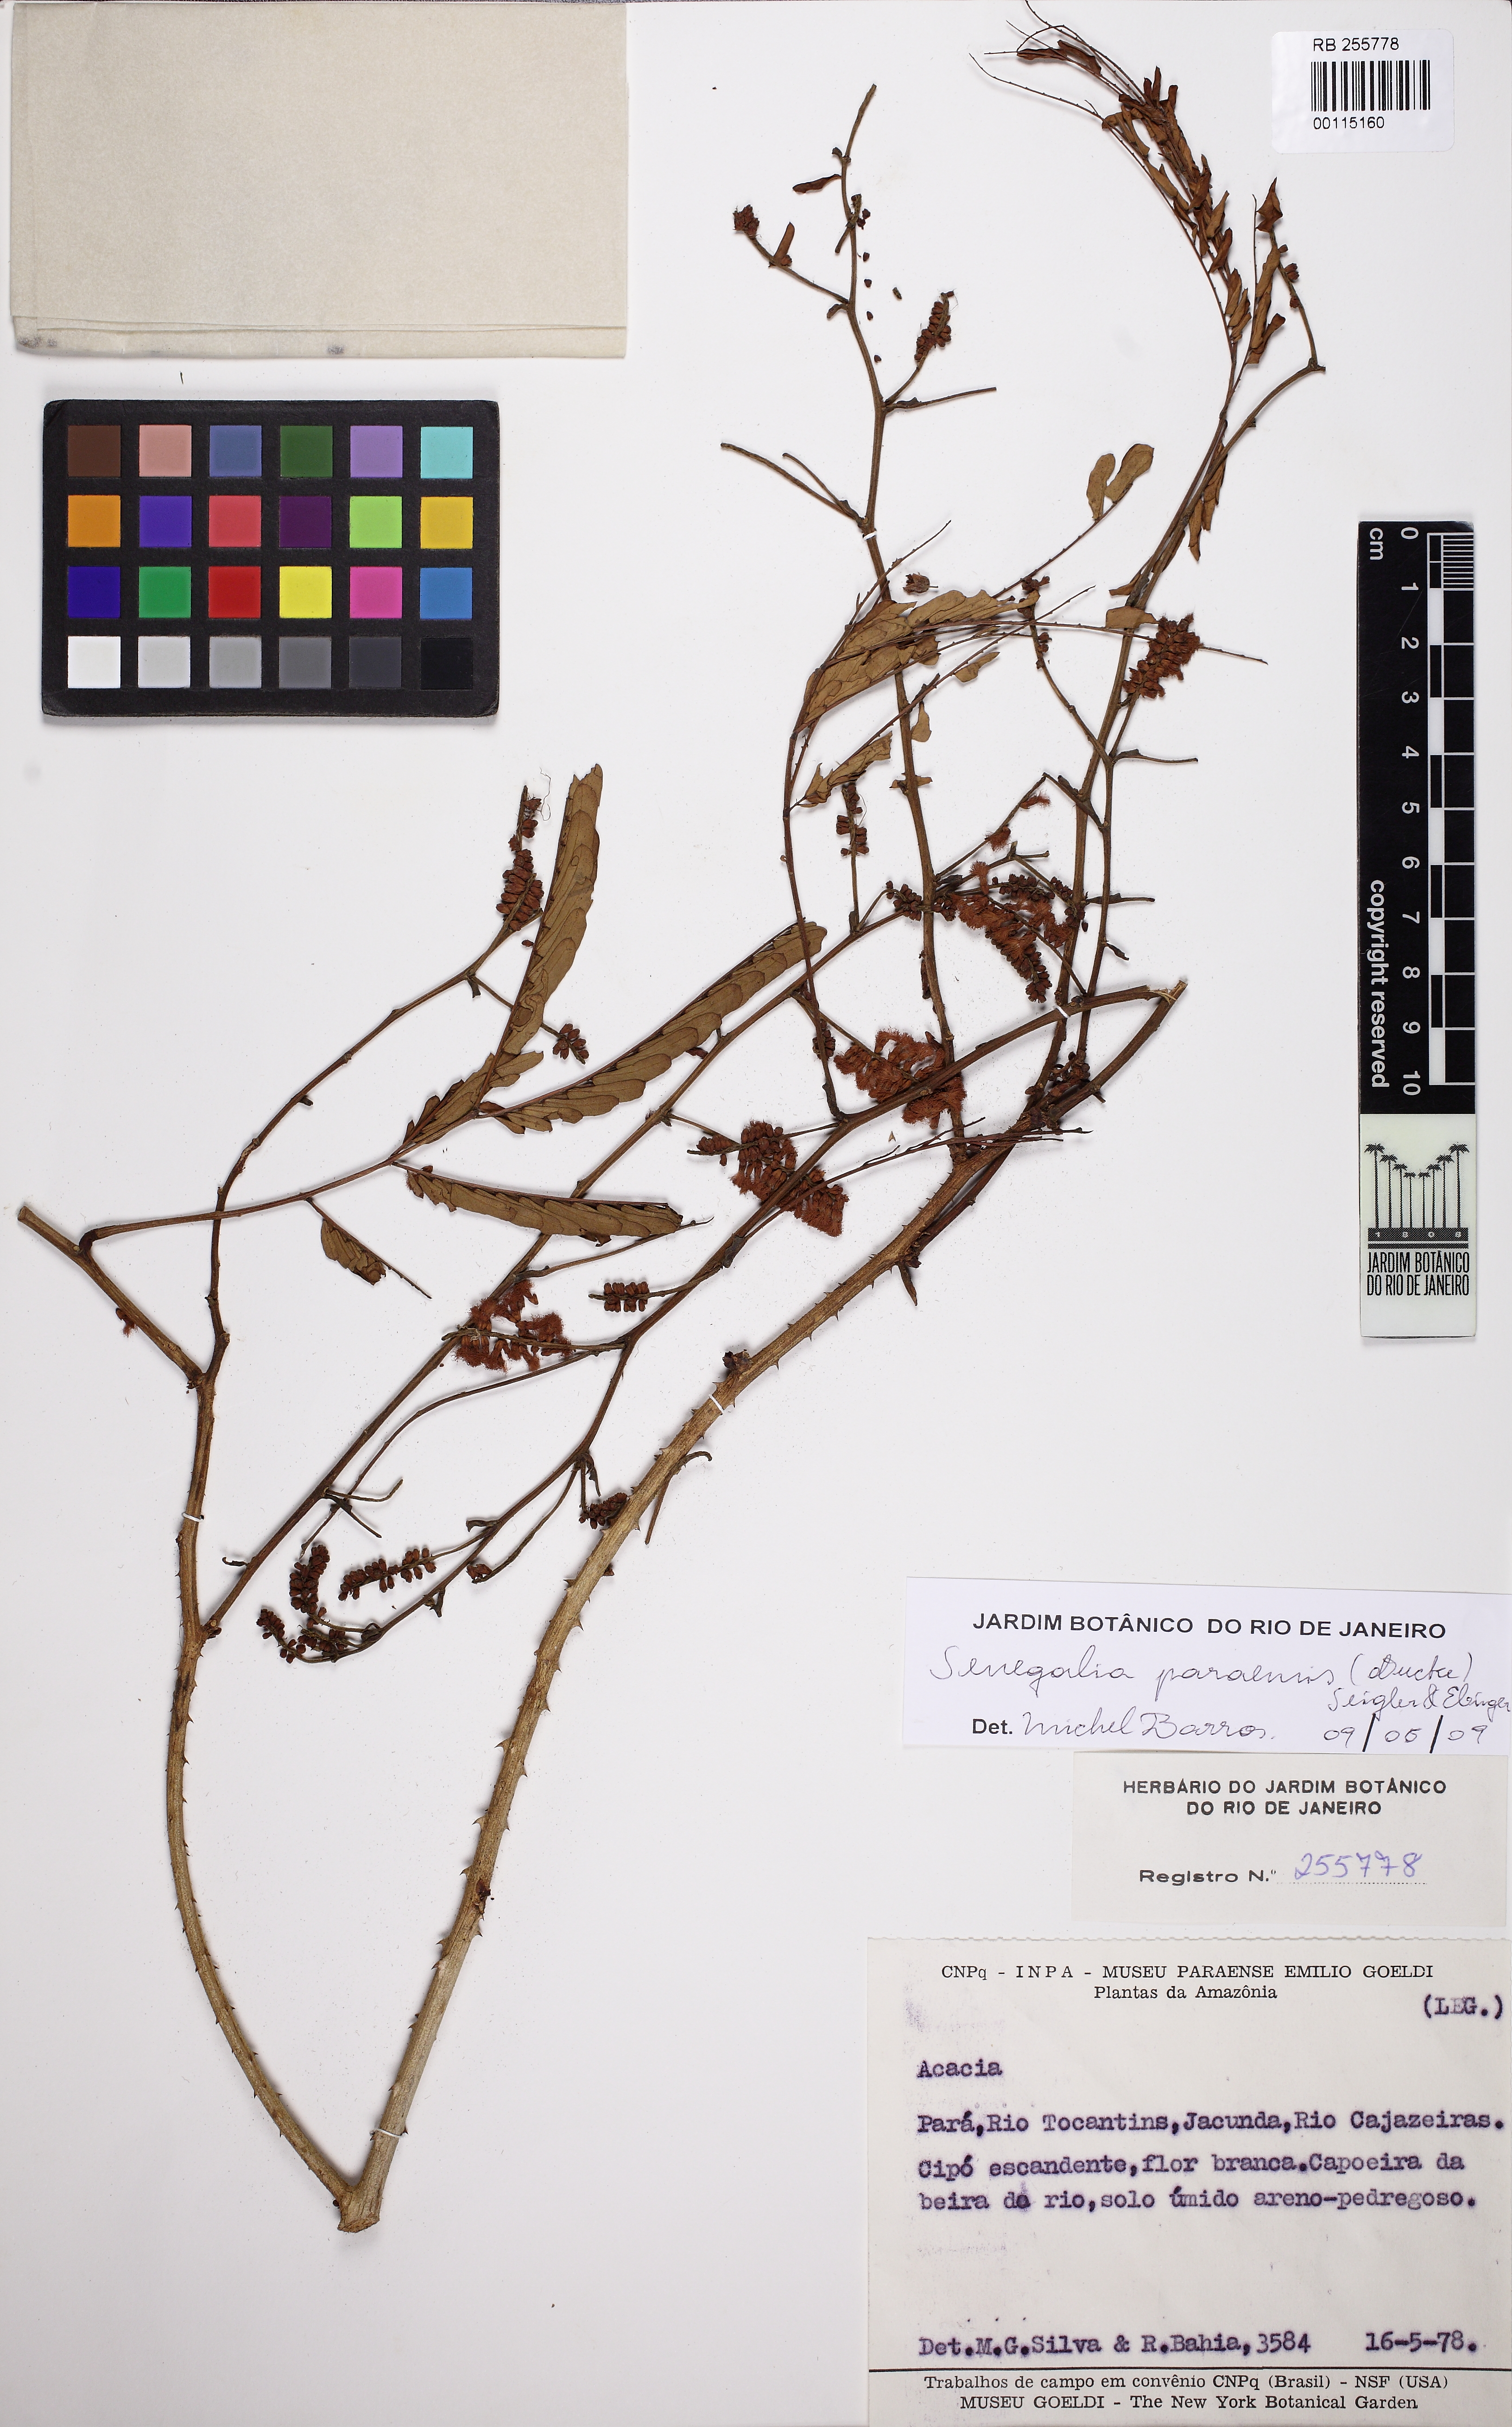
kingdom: Plantae
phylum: Tracheophyta
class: Magnoliopsida
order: Fabales
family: Fabaceae
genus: Senegalia
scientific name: Senegalia paraensis
